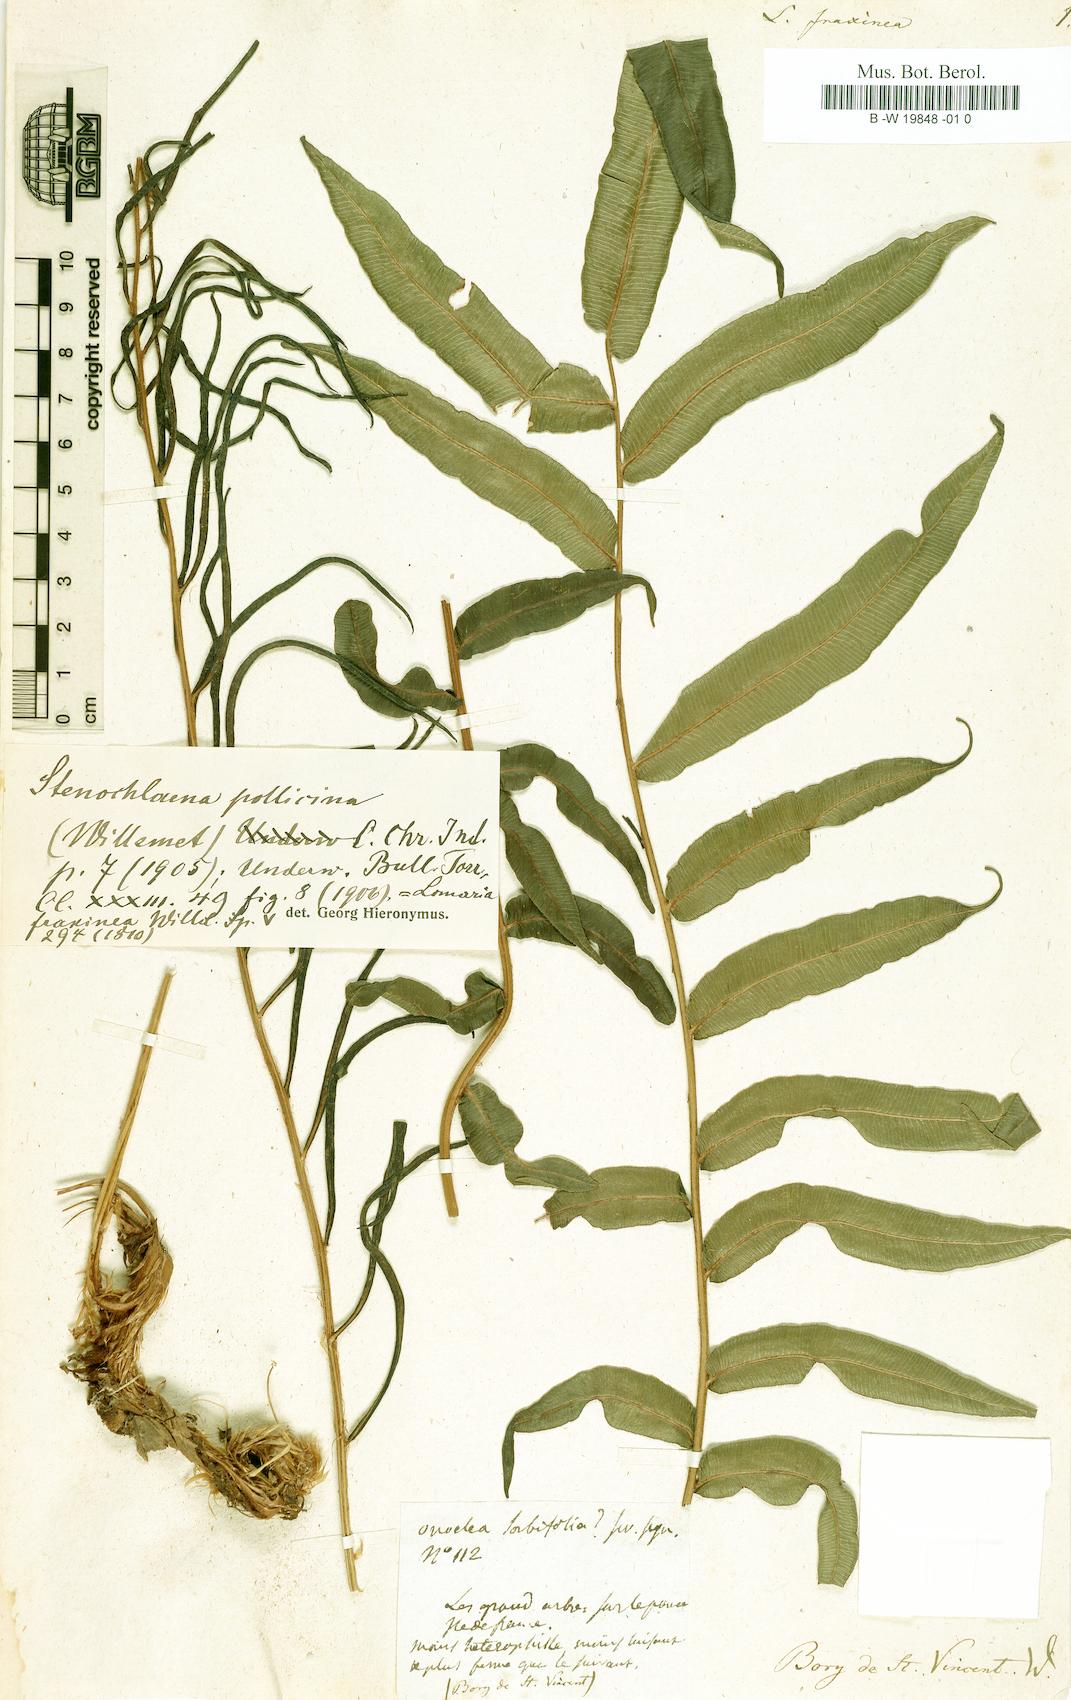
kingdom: Plantae
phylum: Tracheophyta
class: Polypodiopsida
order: Polypodiales
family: Lomariopsidaceae
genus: Lomariopsis
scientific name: Lomariopsis pollicina
